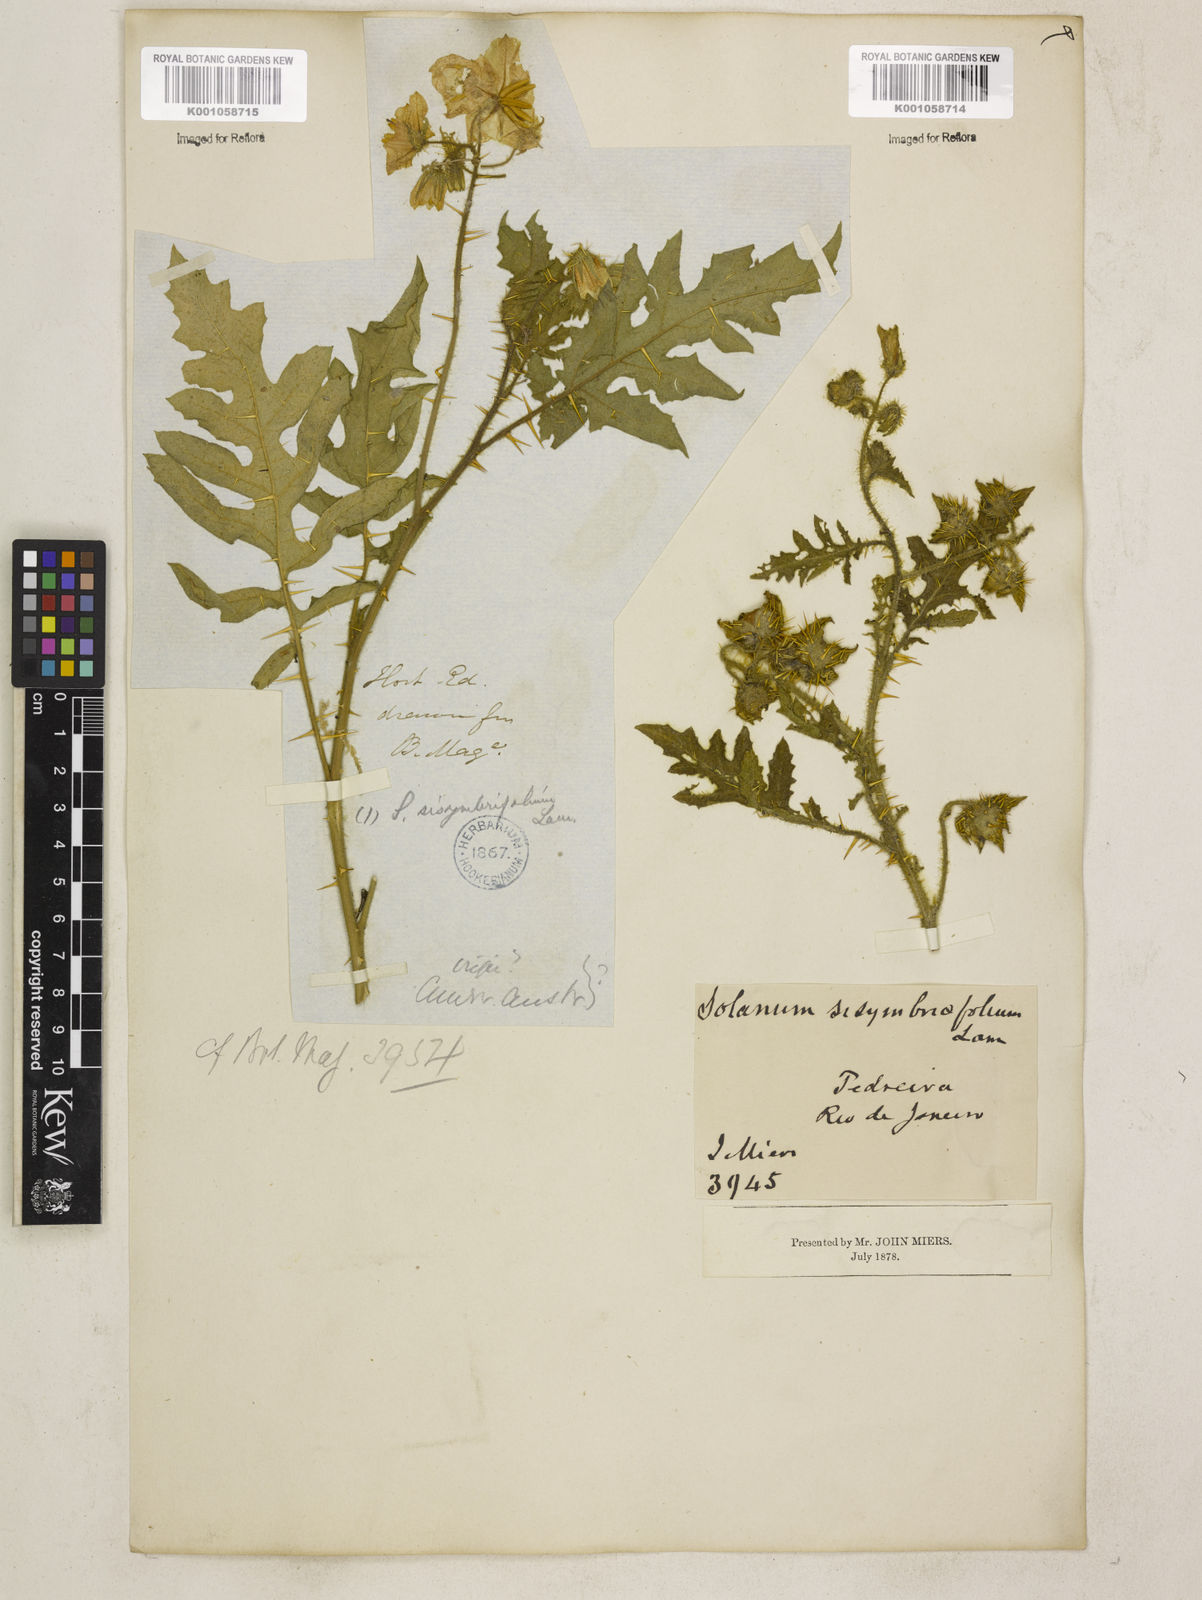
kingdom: Plantae
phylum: Tracheophyta
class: Magnoliopsida
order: Solanales
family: Solanaceae
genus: Solanum
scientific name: Solanum sisymbriifolium
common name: Red buffalo-bur
